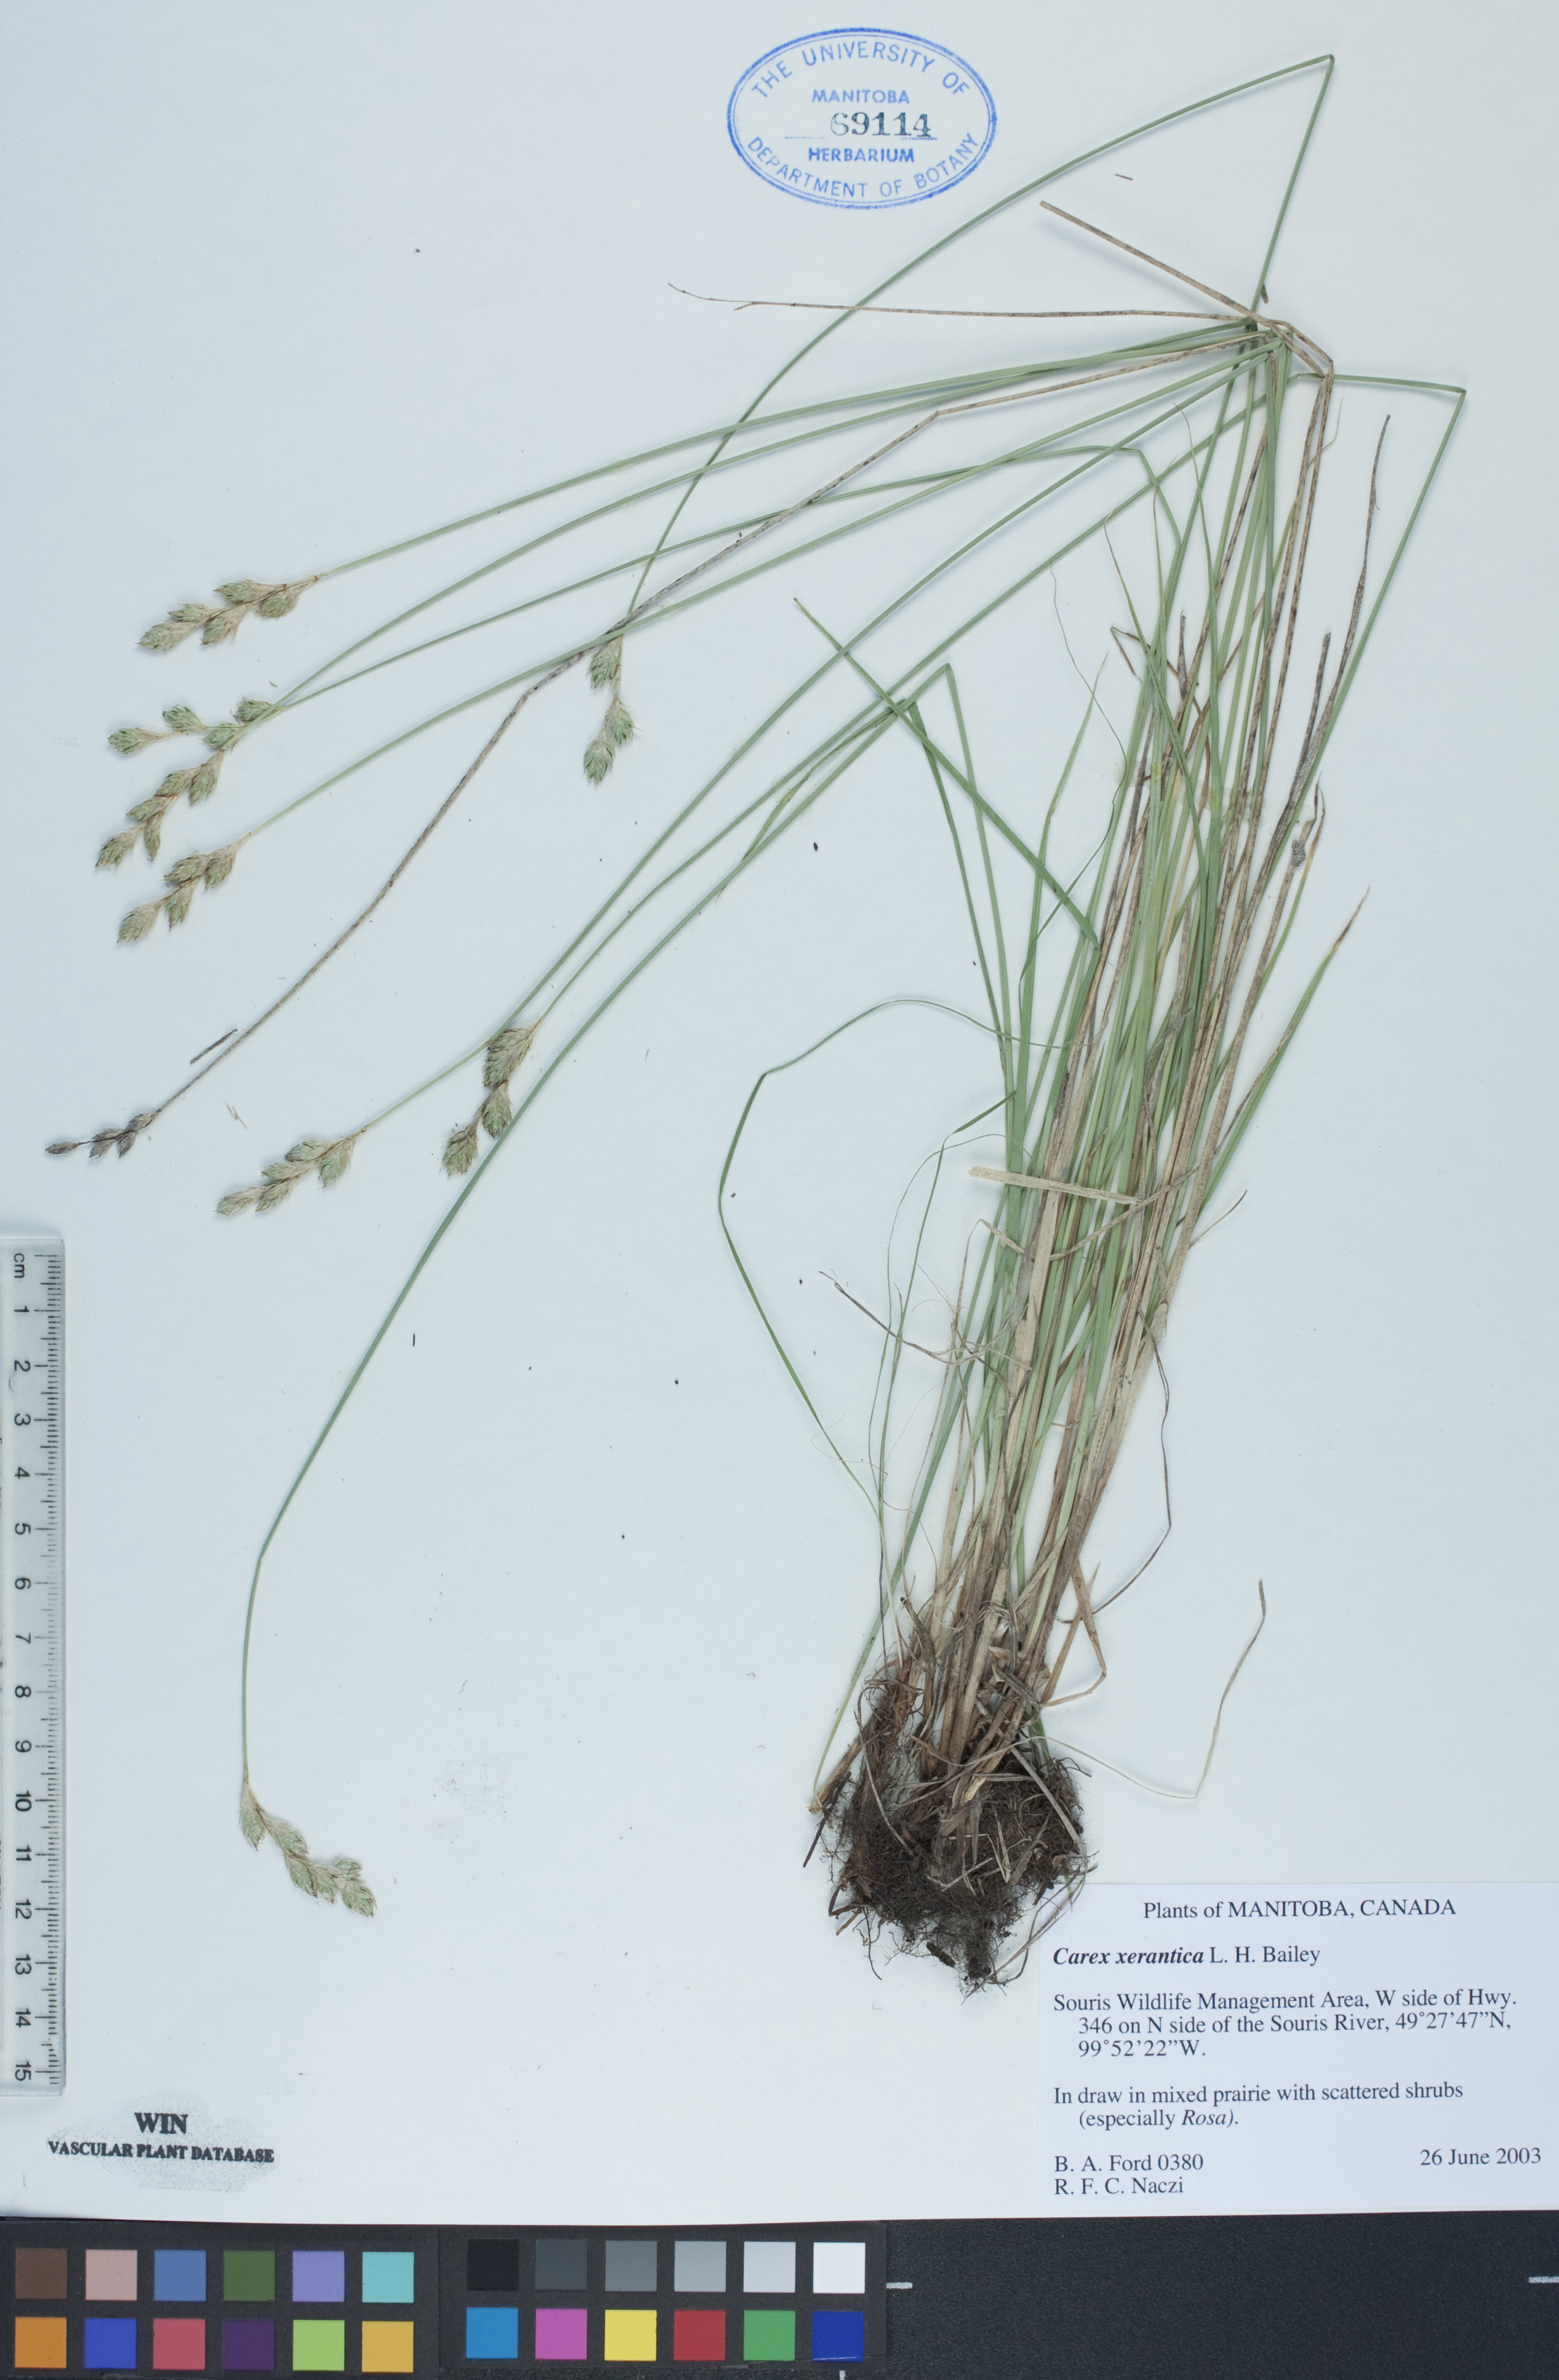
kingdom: Plantae
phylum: Tracheophyta
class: Liliopsida
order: Poales
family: Cyperaceae
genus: Carex
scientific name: Carex xerantica
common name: Dryland sedge
